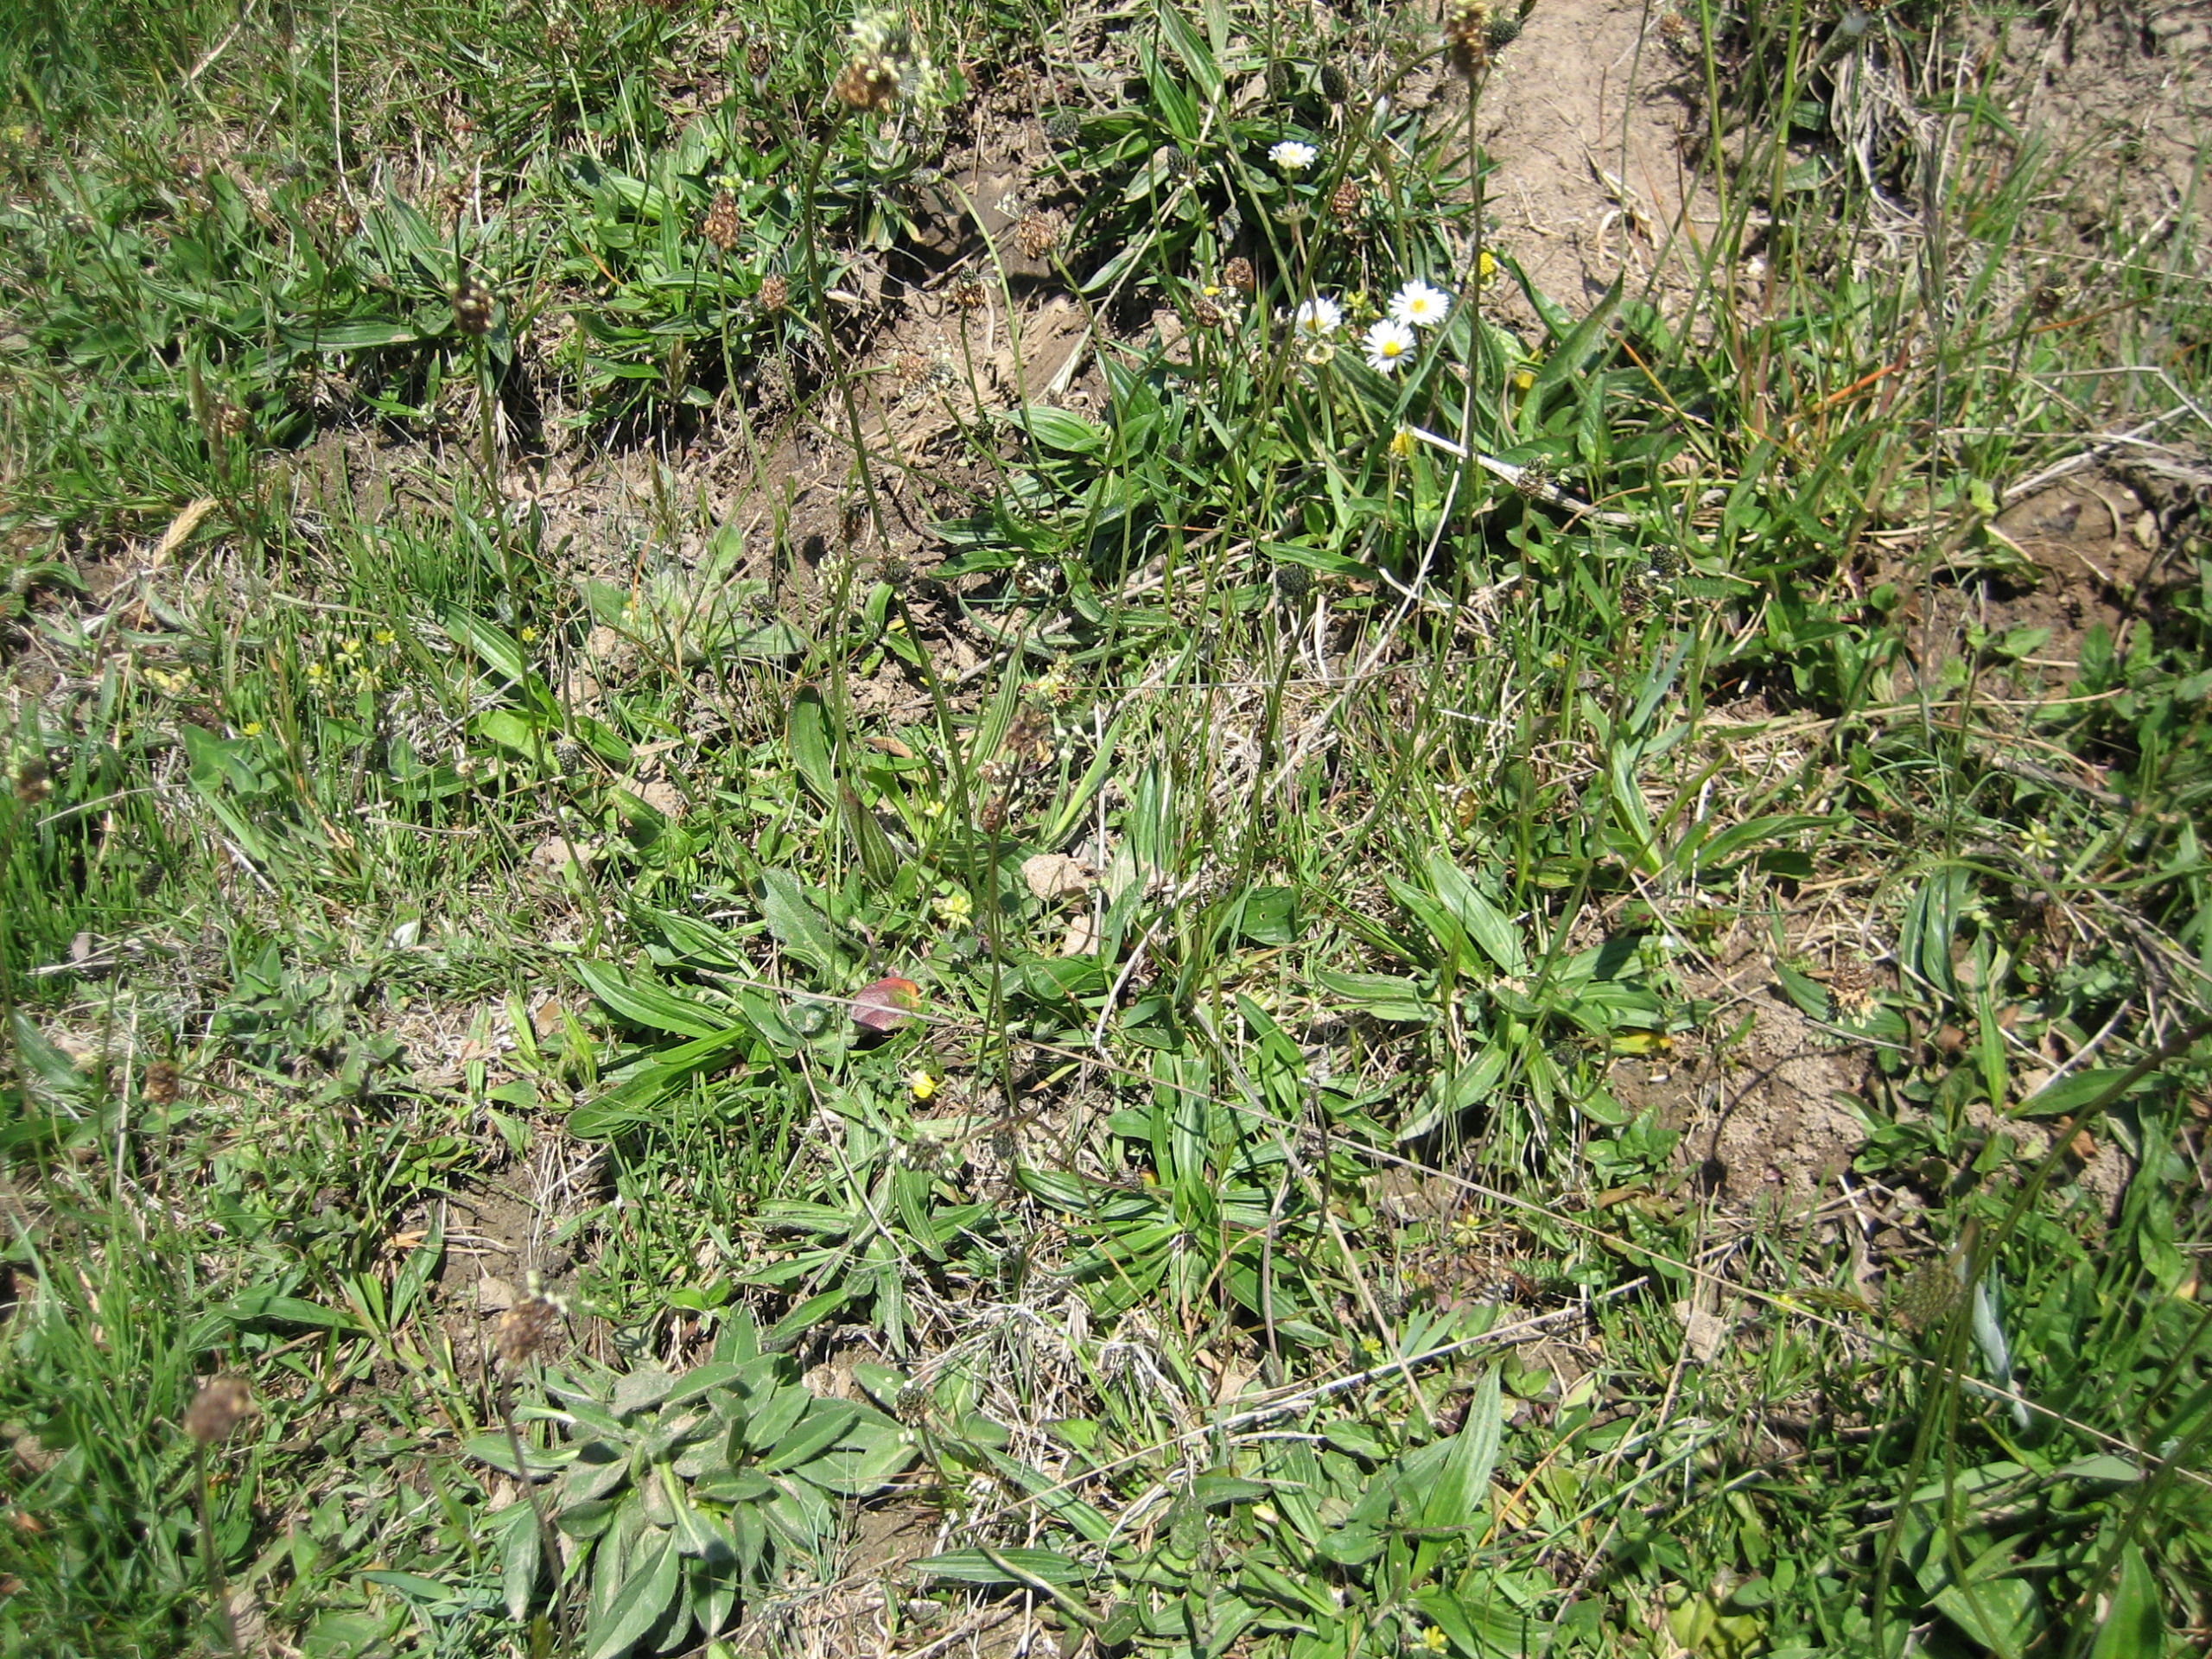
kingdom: Plantae
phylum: Tracheophyta
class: Magnoliopsida
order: Lamiales
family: Plantaginaceae
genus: Plantago
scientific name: Plantago lanceolata
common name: Lancet-vejbred
